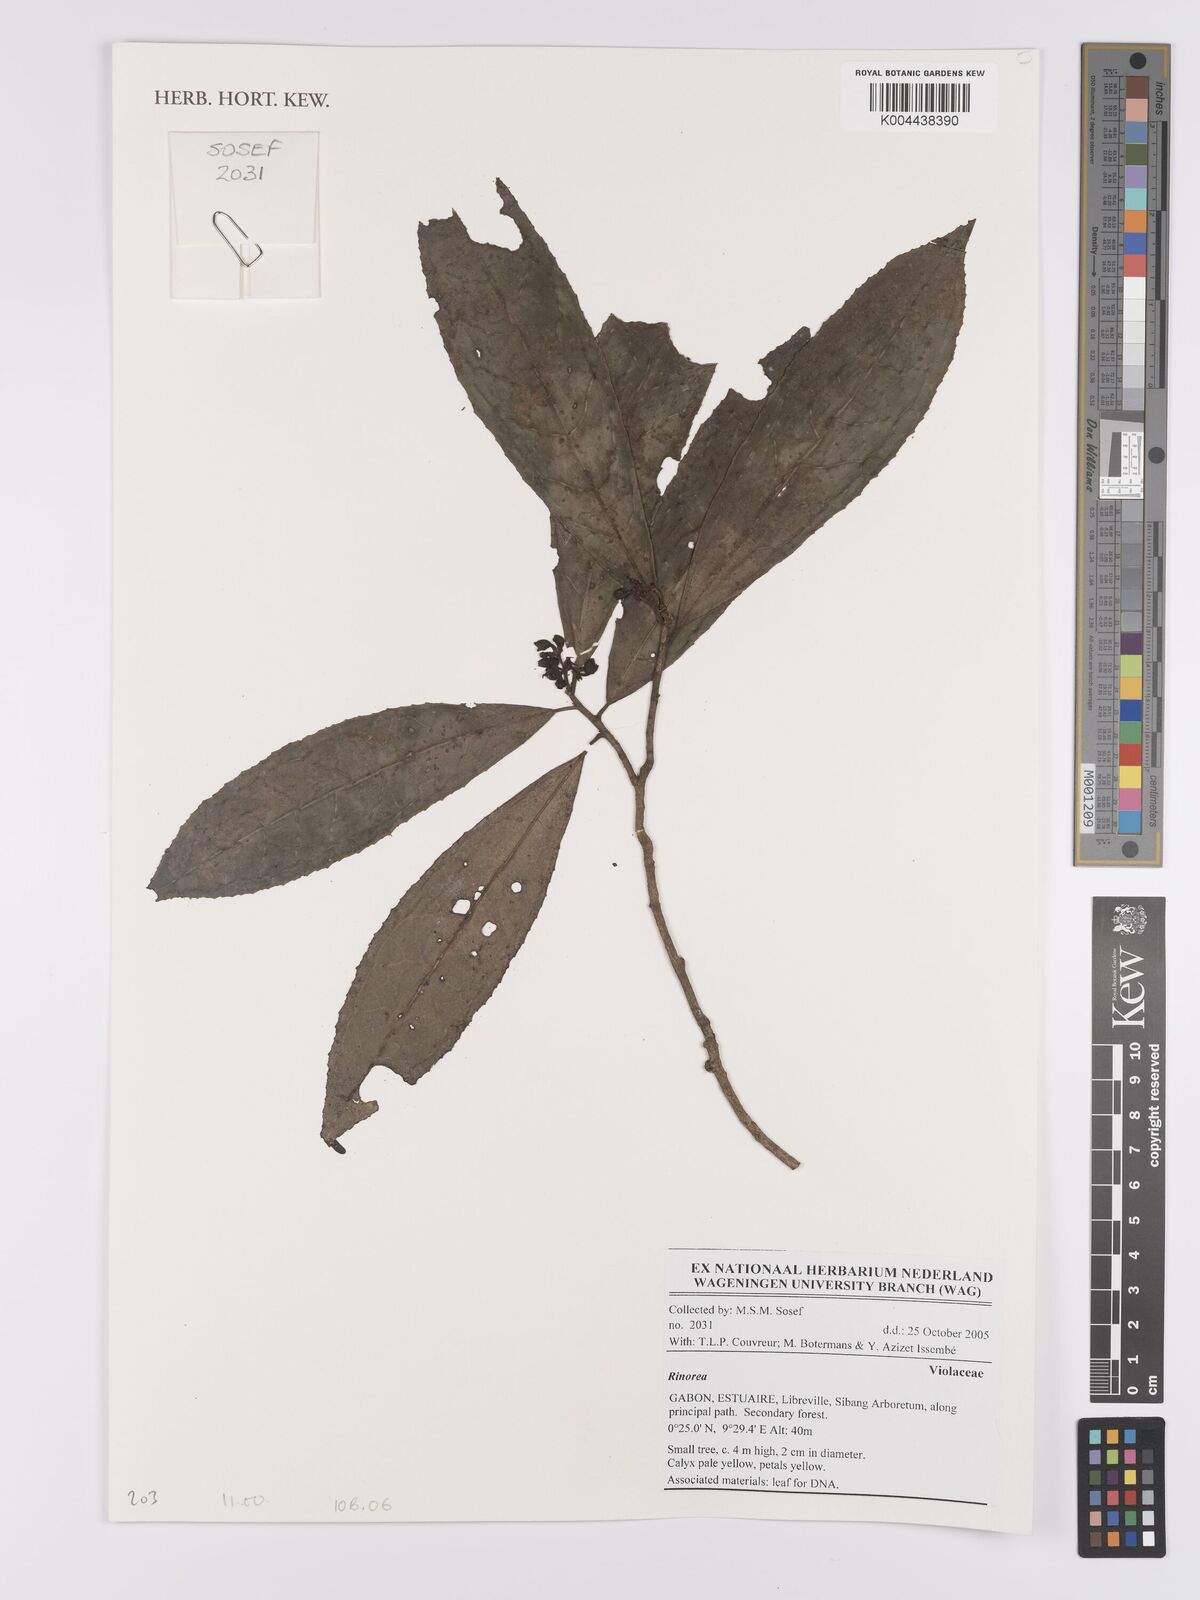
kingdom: Plantae
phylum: Tracheophyta
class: Magnoliopsida
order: Malpighiales
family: Violaceae
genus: Rinorea
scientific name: Rinorea
